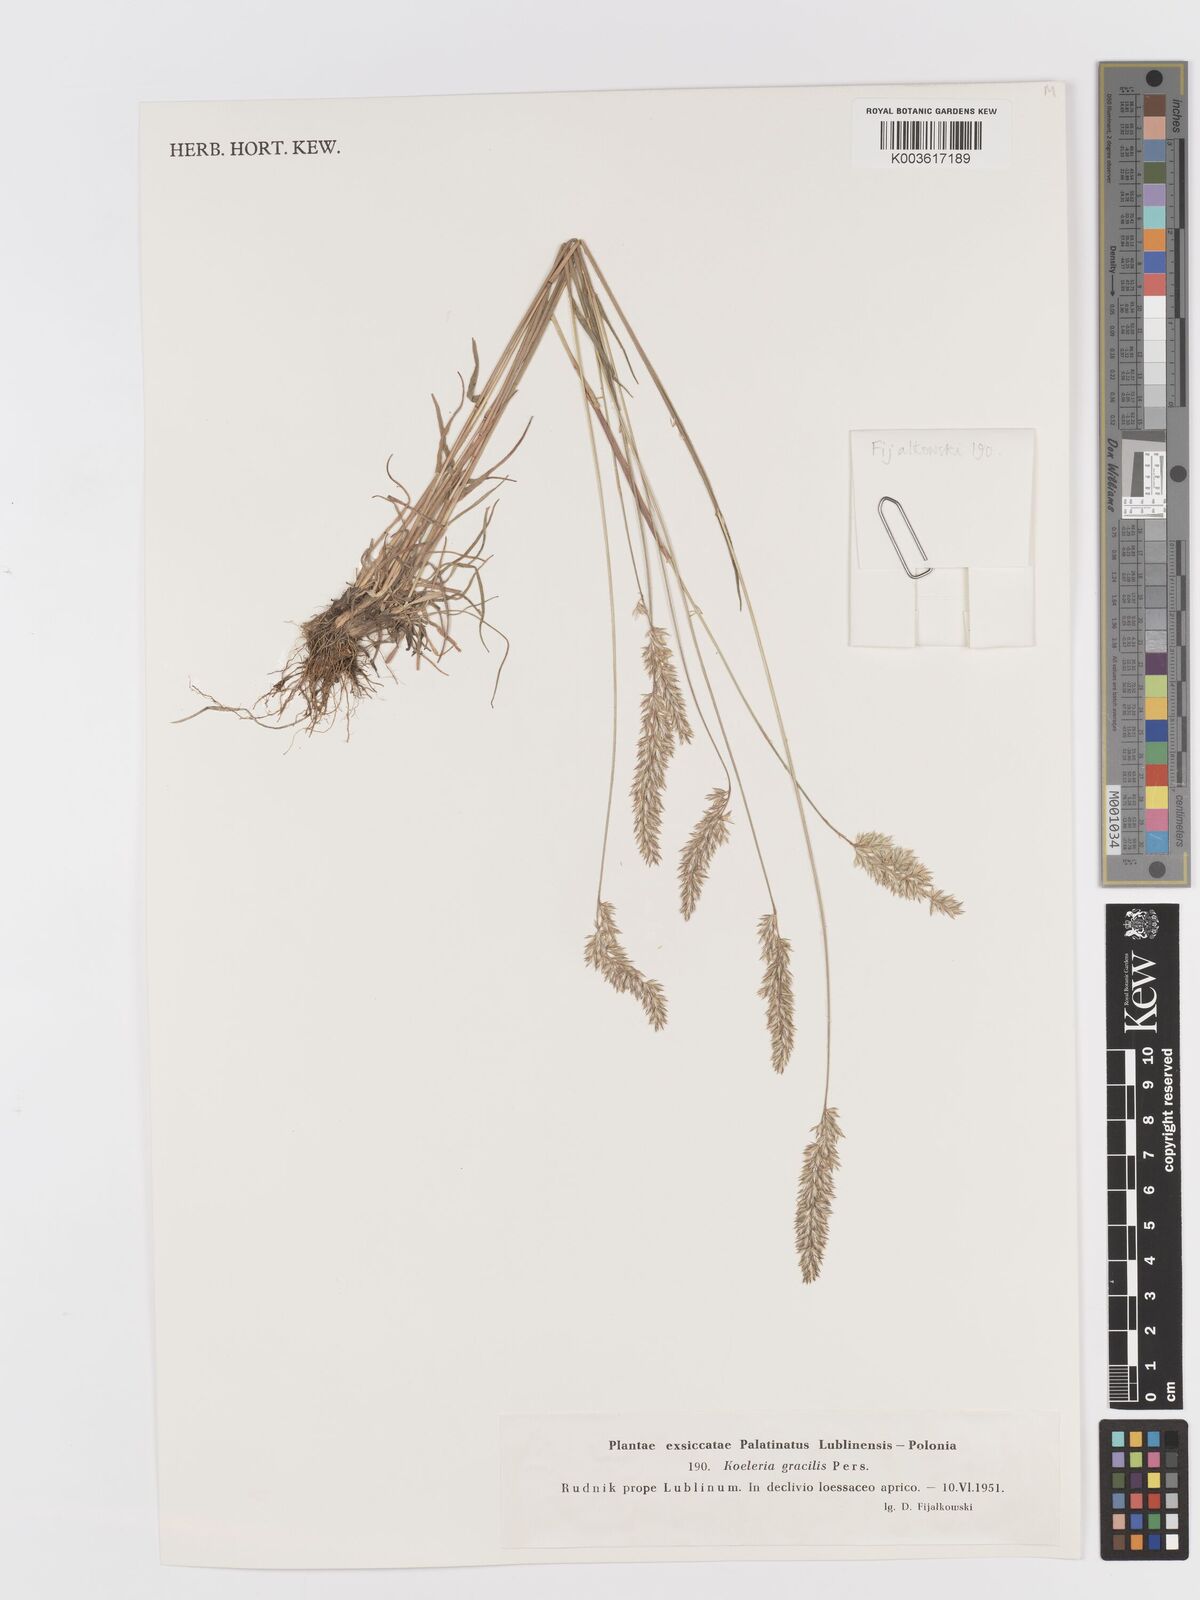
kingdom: Plantae
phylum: Tracheophyta
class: Liliopsida
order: Poales
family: Poaceae
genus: Koeleria
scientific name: Koeleria macrantha
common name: Crested hair-grass
